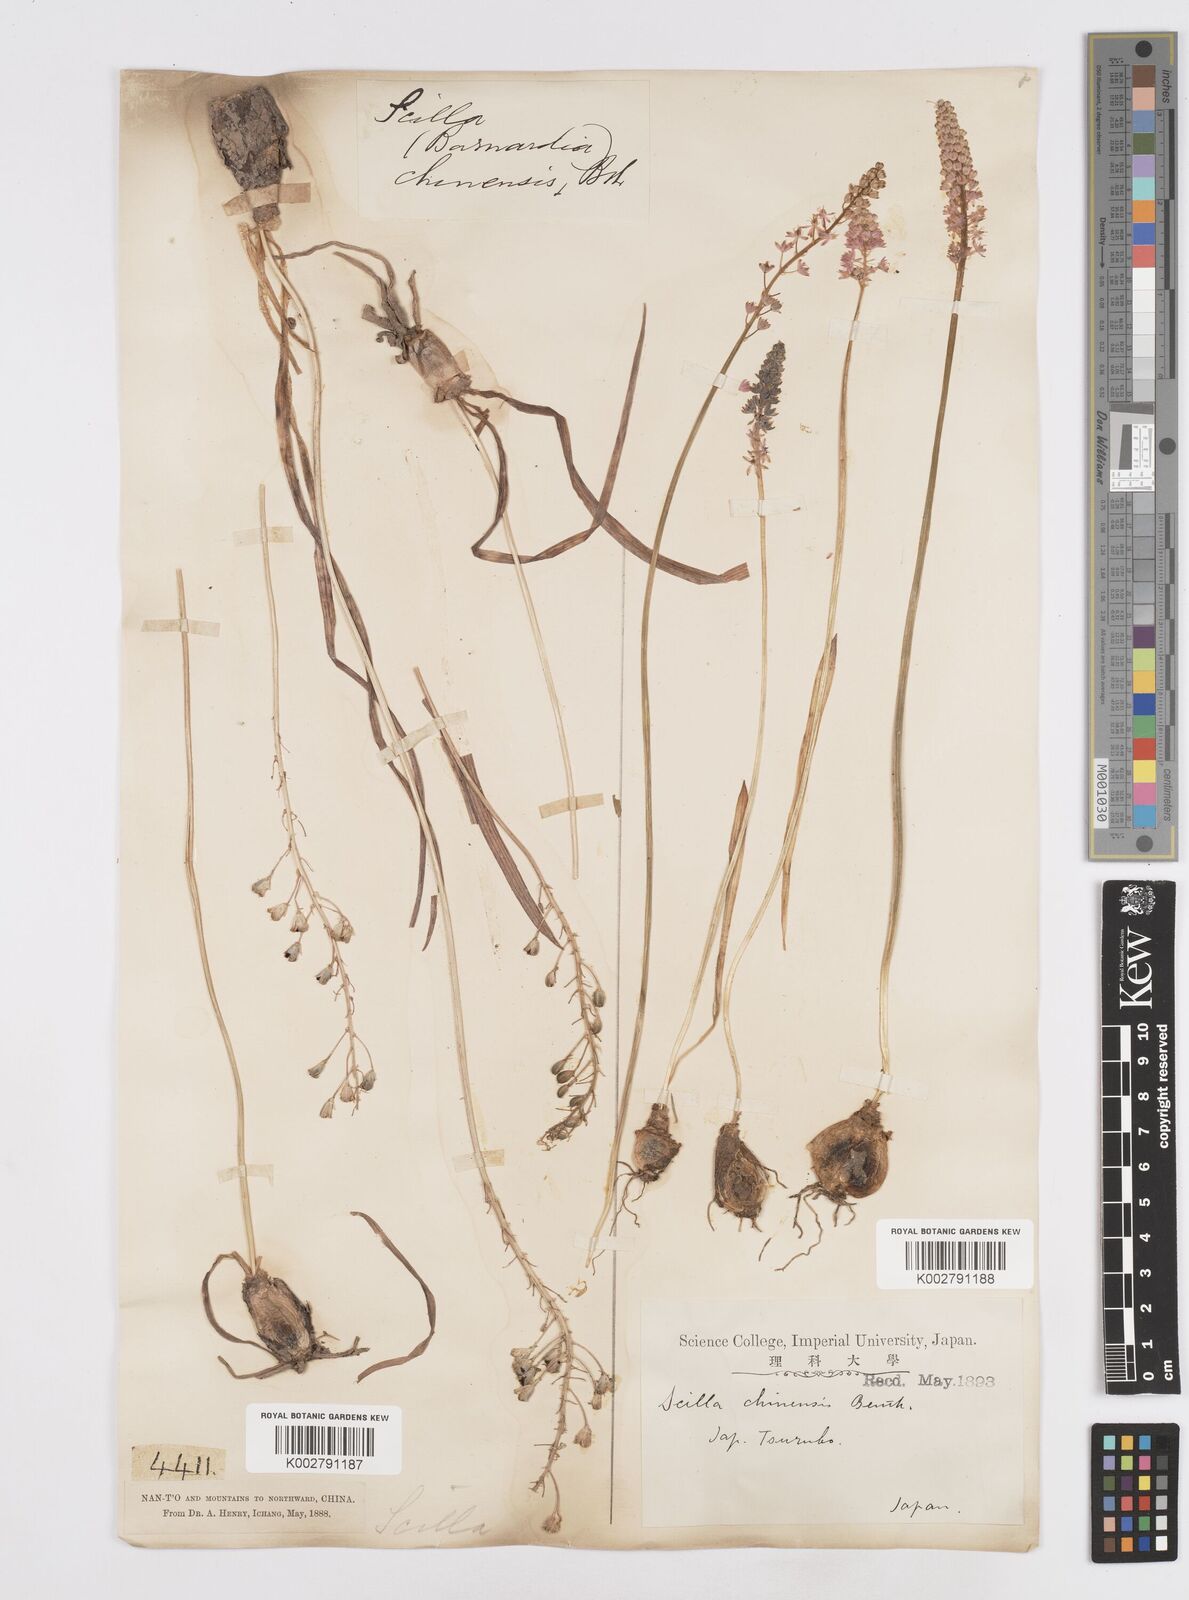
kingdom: Plantae
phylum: Tracheophyta
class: Liliopsida
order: Asparagales
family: Asparagaceae
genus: Barnardia
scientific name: Barnardia japonica
